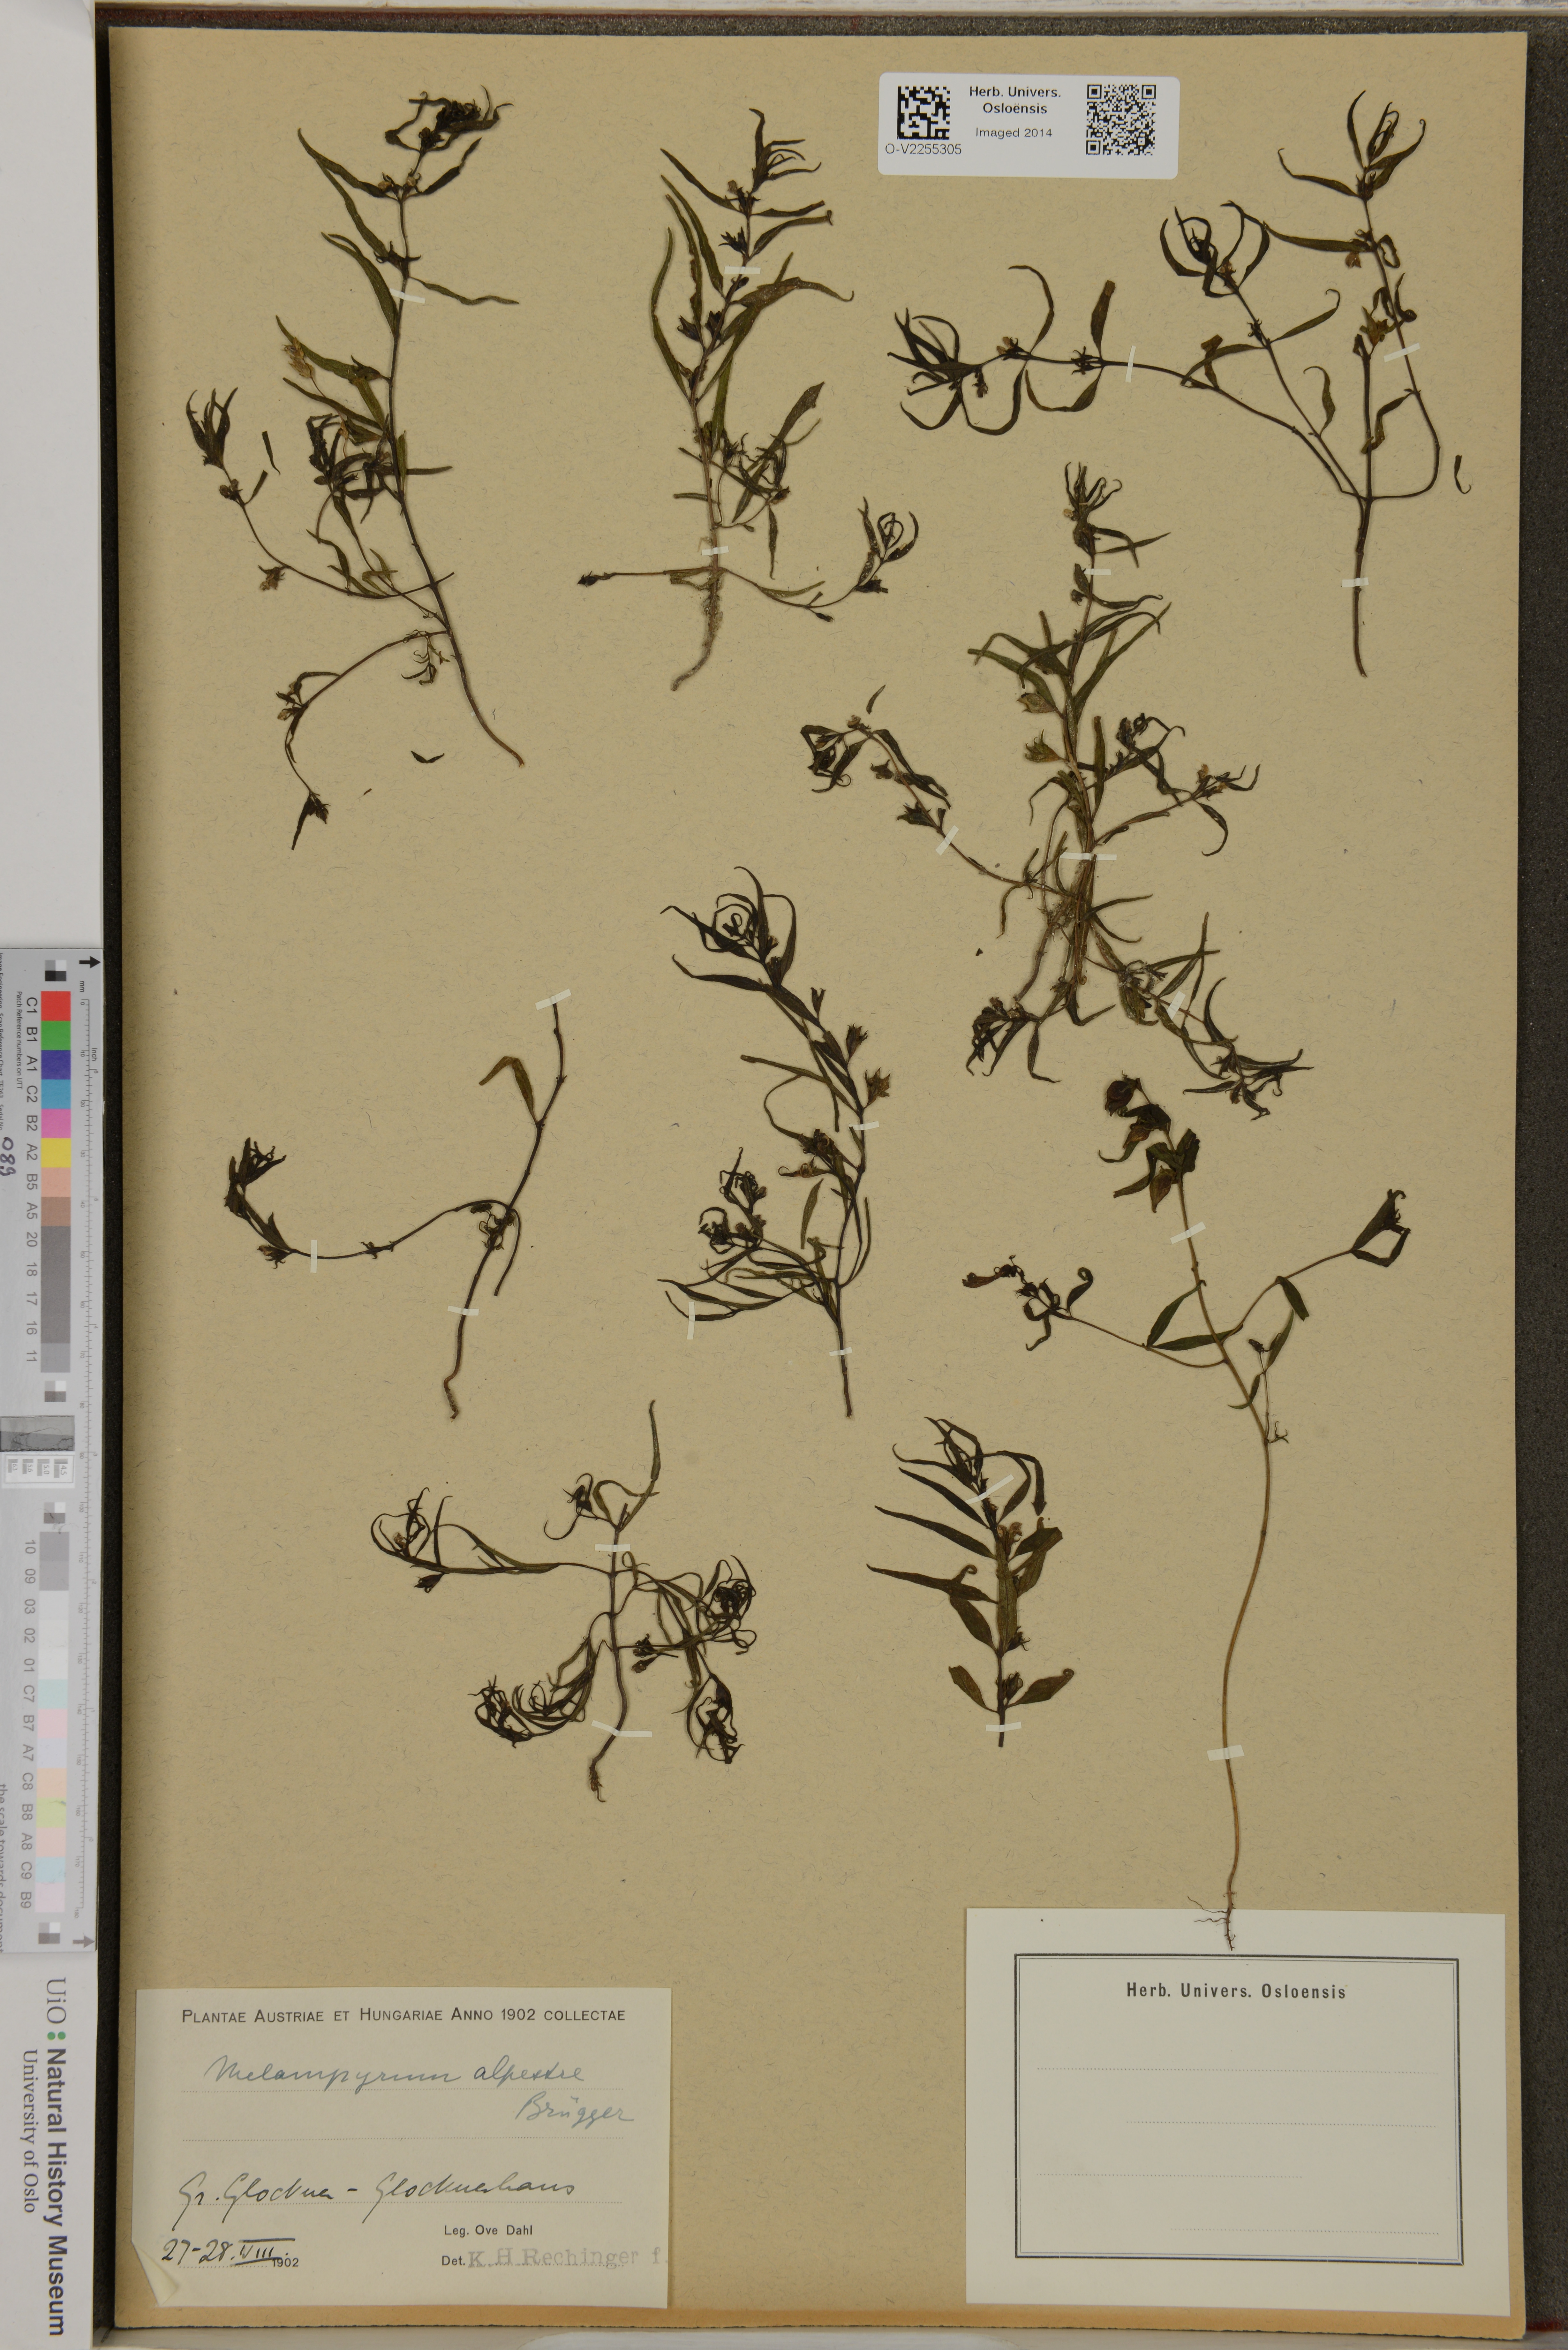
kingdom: Plantae
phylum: Tracheophyta
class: Magnoliopsida
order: Lamiales
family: Orobanchaceae
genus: Melampyrum
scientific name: Melampyrum
